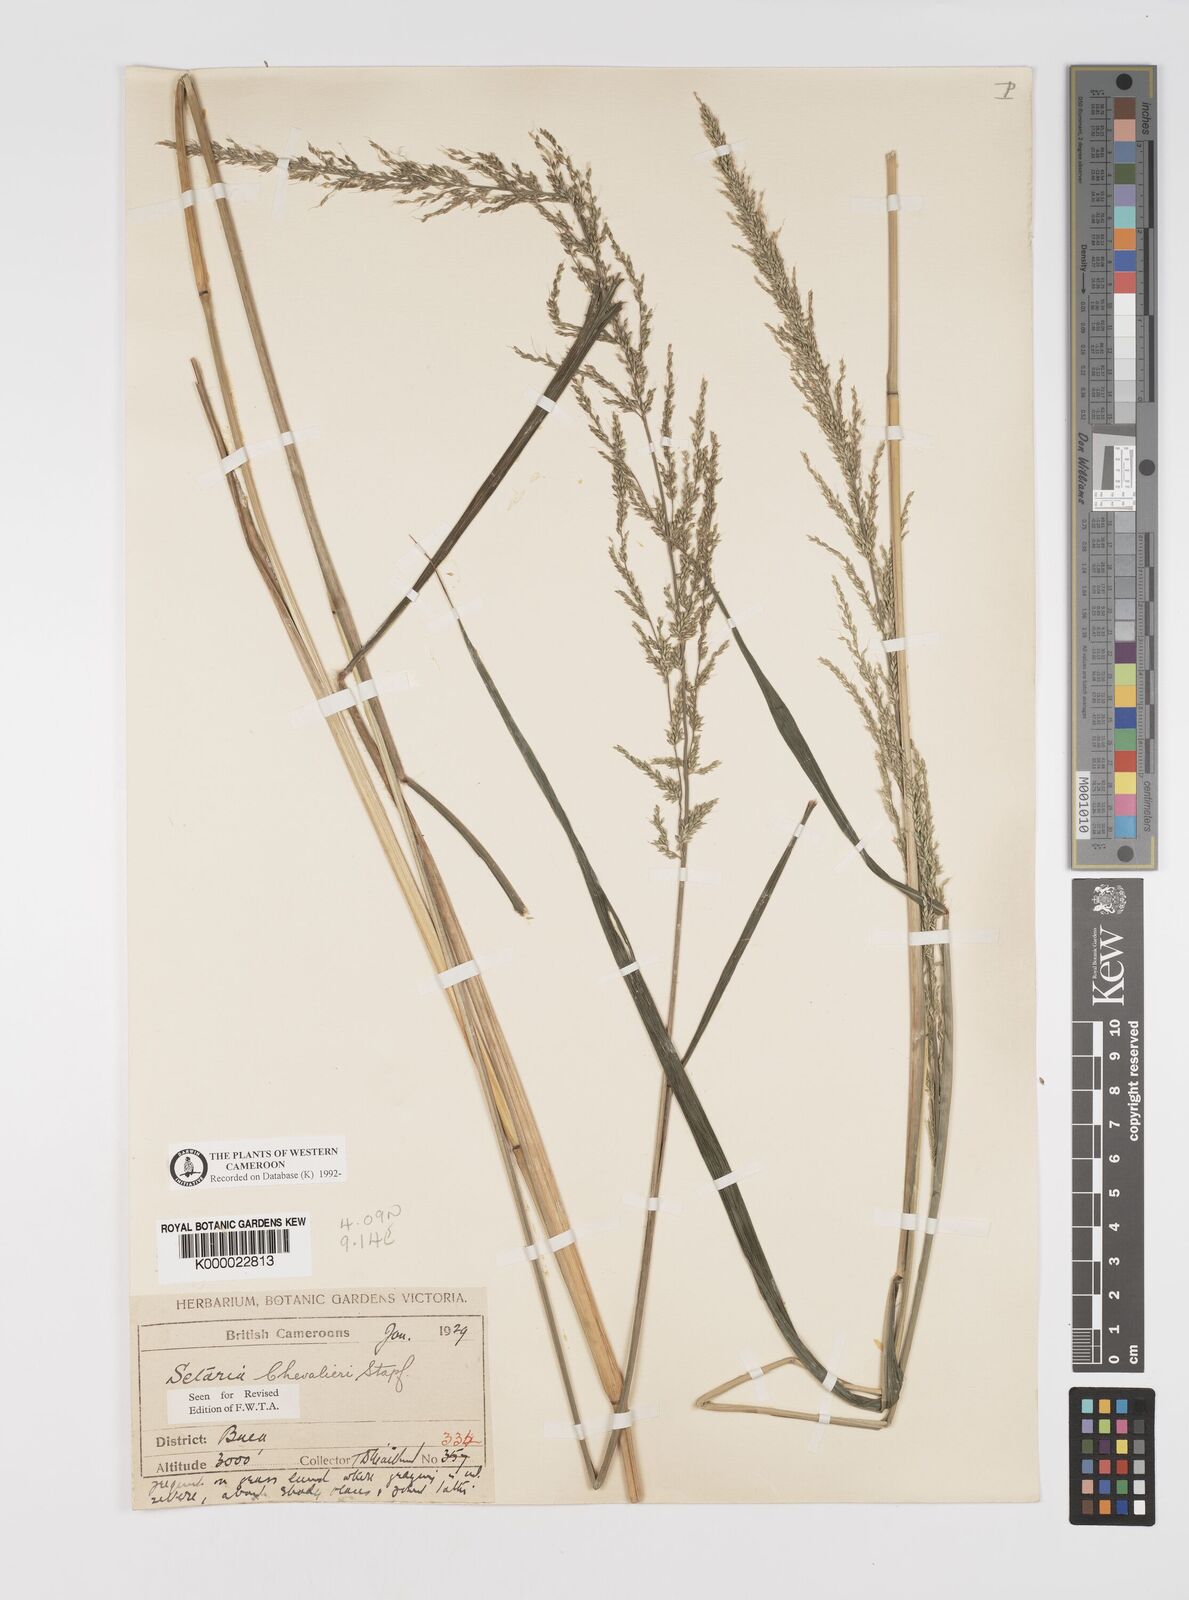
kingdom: Plantae
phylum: Tracheophyta
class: Liliopsida
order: Poales
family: Poaceae
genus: Setaria
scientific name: Setaria megaphylla
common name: Bigleaf bristlegrass
